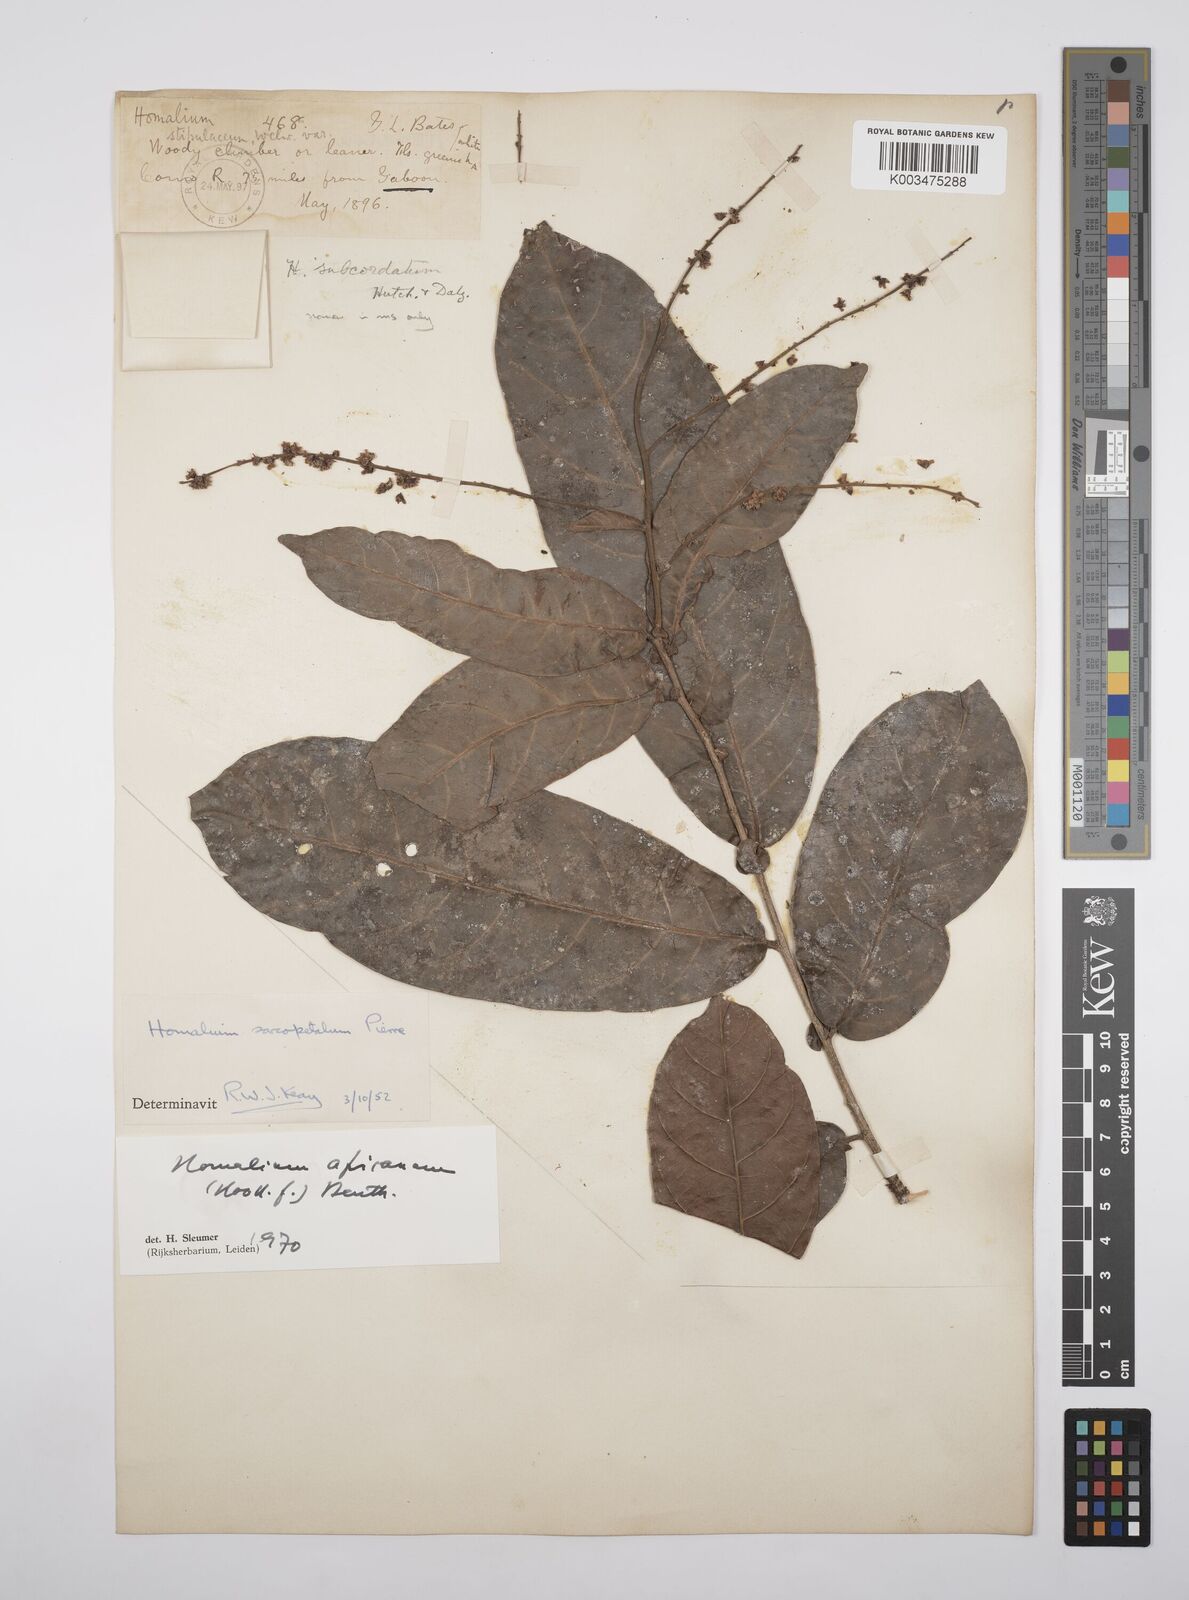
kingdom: Plantae
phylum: Tracheophyta
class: Magnoliopsida
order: Malpighiales
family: Salicaceae
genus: Homalium
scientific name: Homalium africanum
